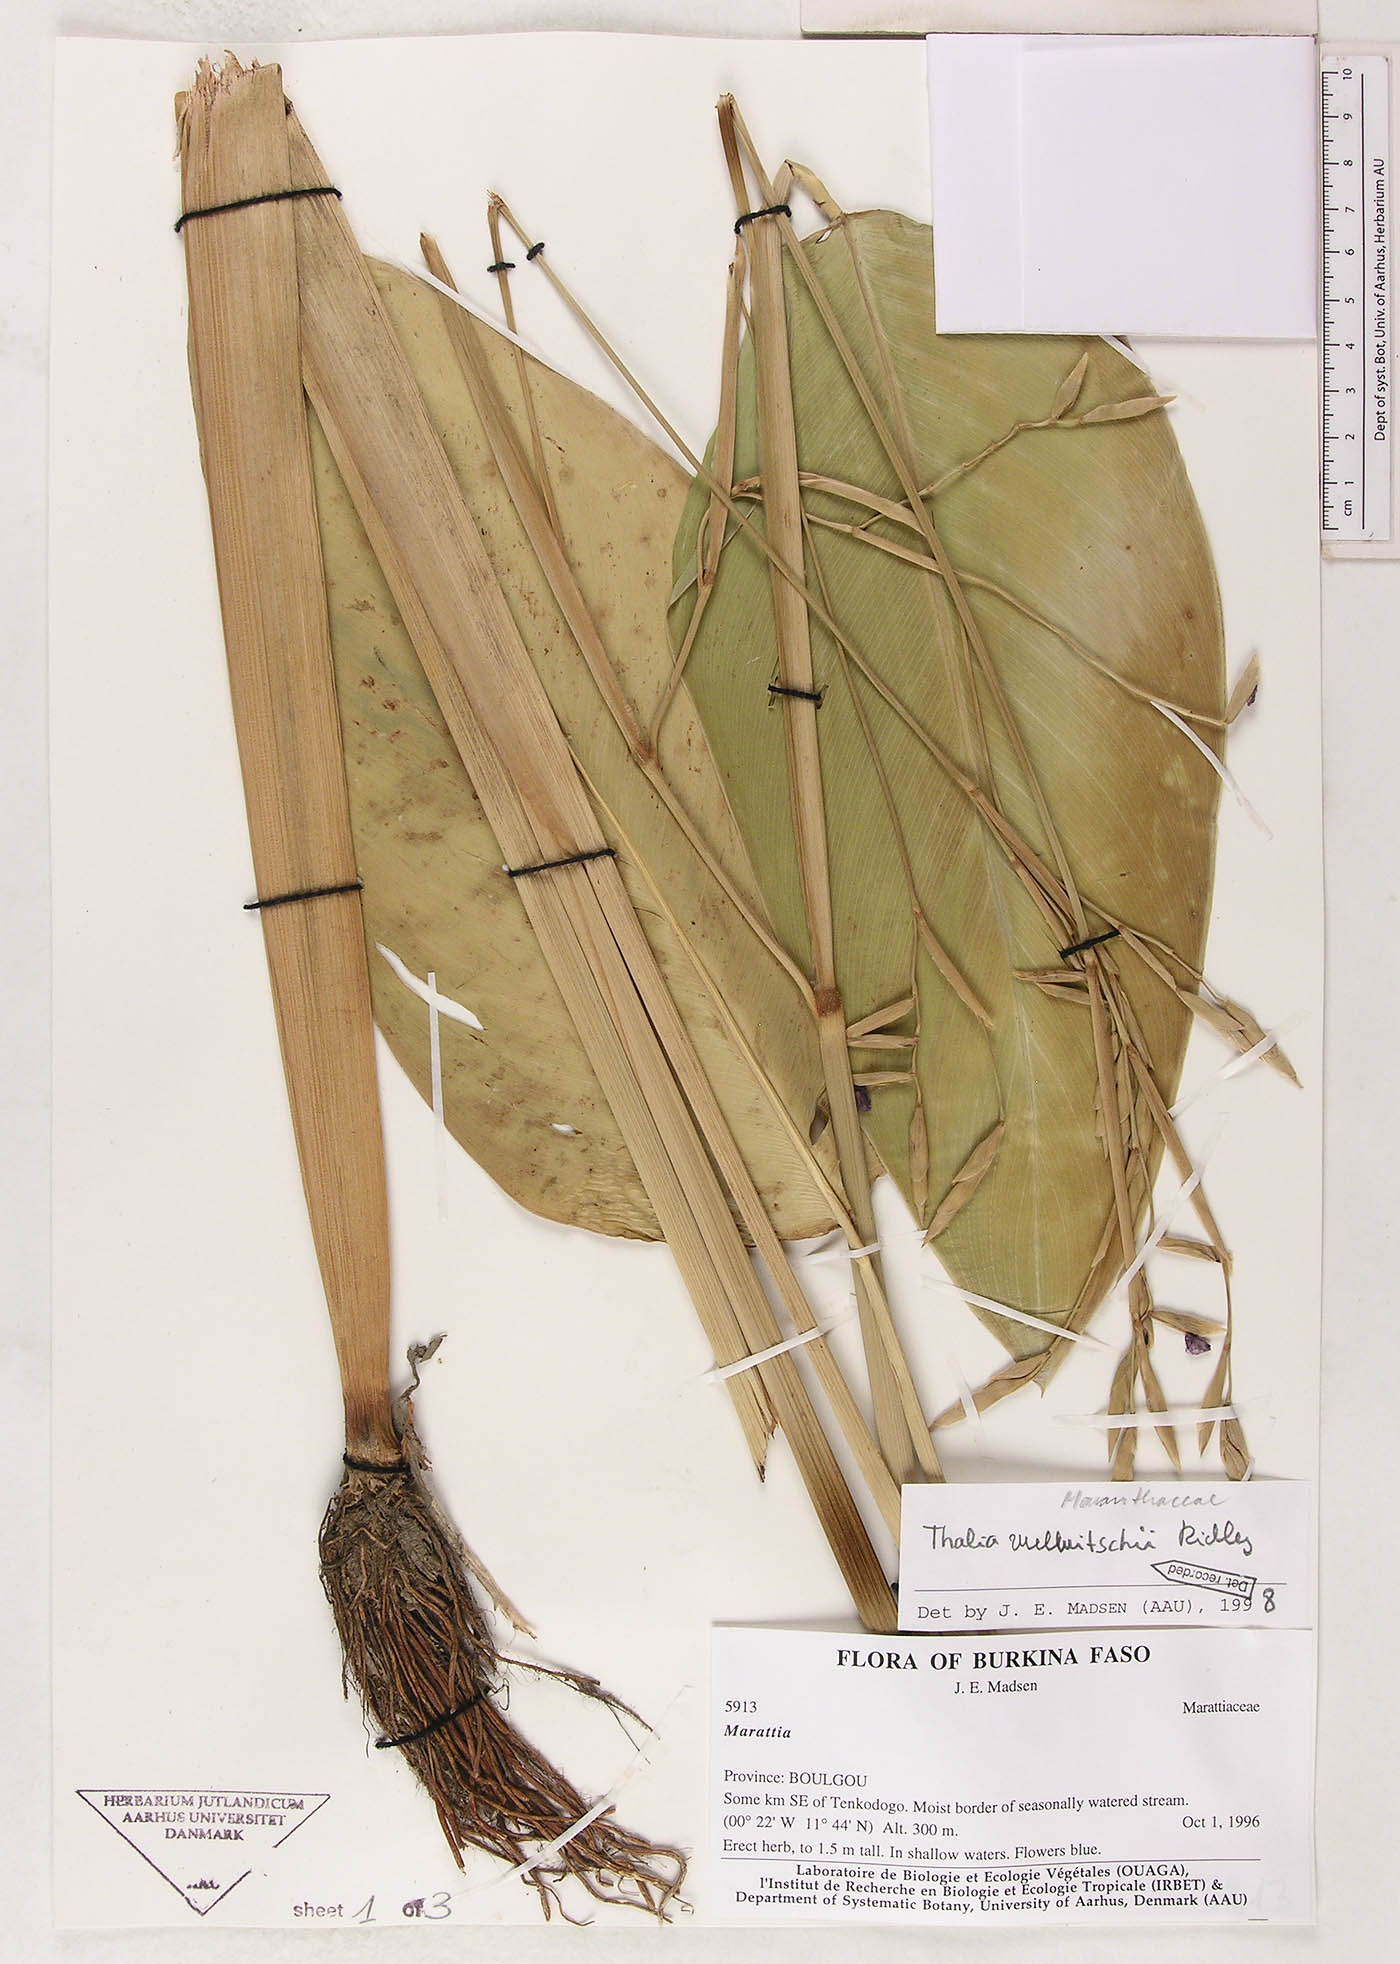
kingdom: Plantae
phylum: Tracheophyta
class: Liliopsida
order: Zingiberales
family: Marantaceae
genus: Thalia
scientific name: Thalia geniculata
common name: Arrowroot
